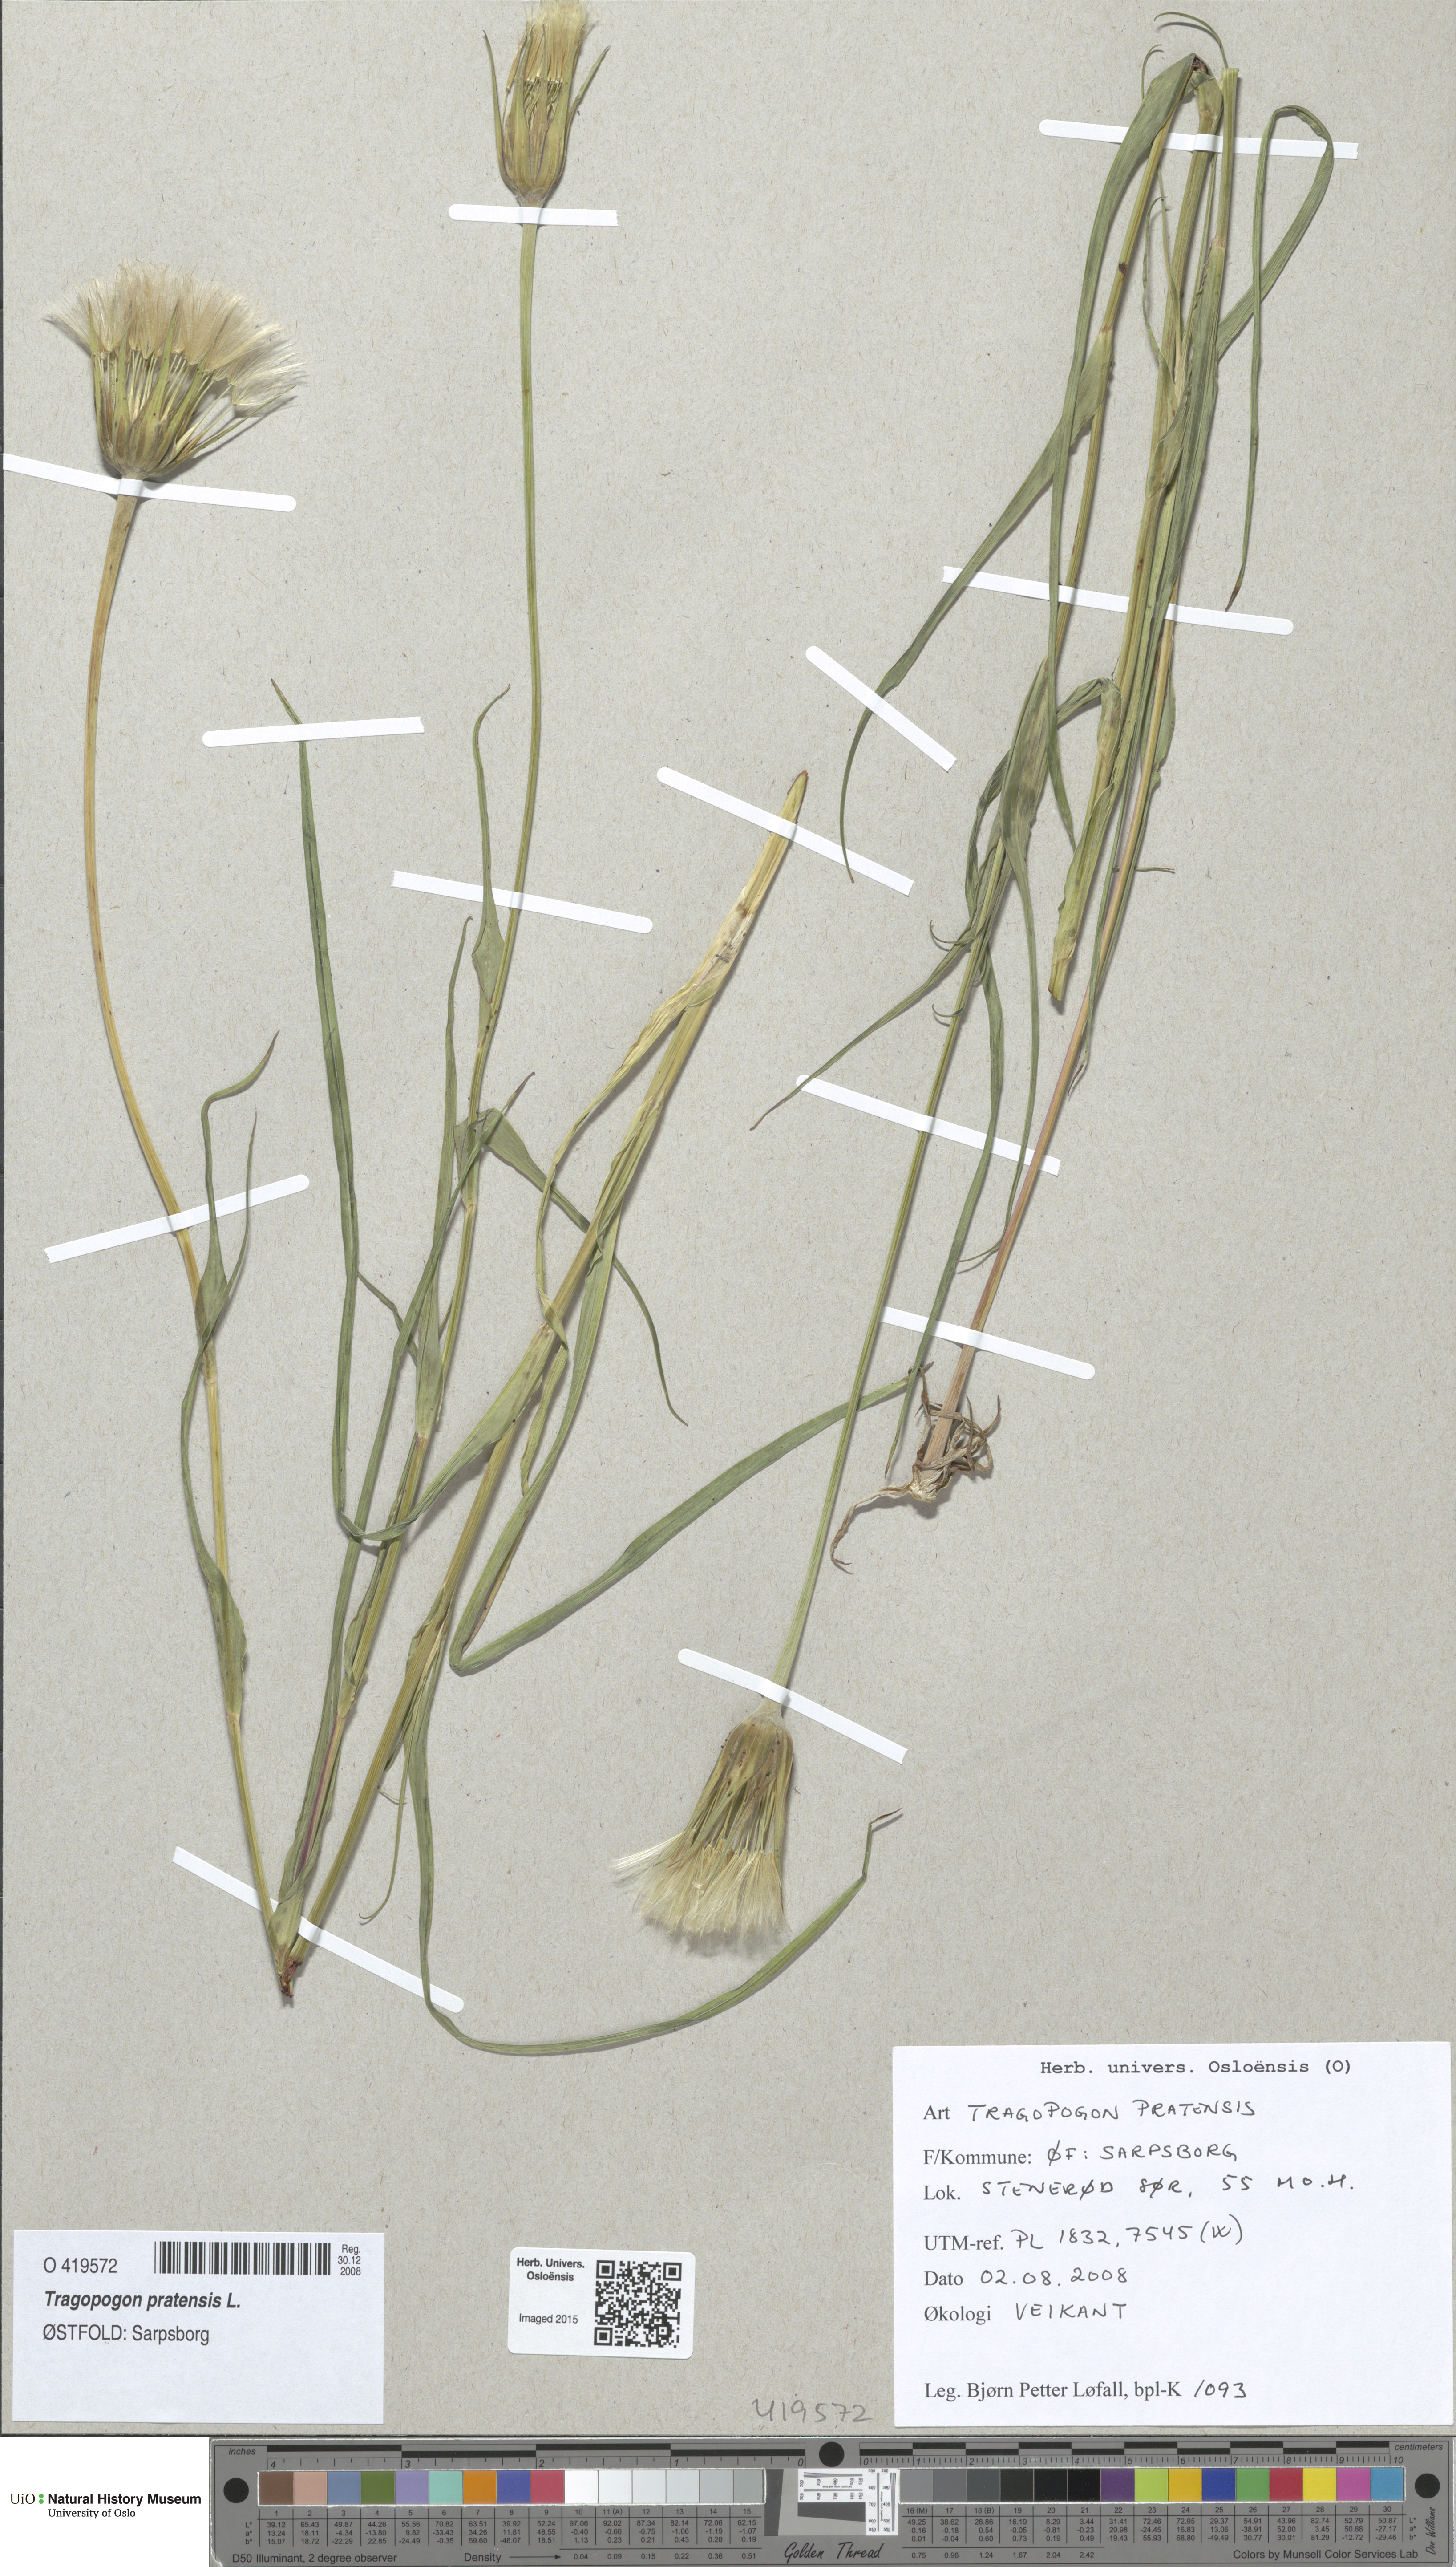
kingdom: Plantae
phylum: Tracheophyta
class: Magnoliopsida
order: Asterales
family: Asteraceae
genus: Tragopogon
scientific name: Tragopogon pratensis
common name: Goat's-beard
